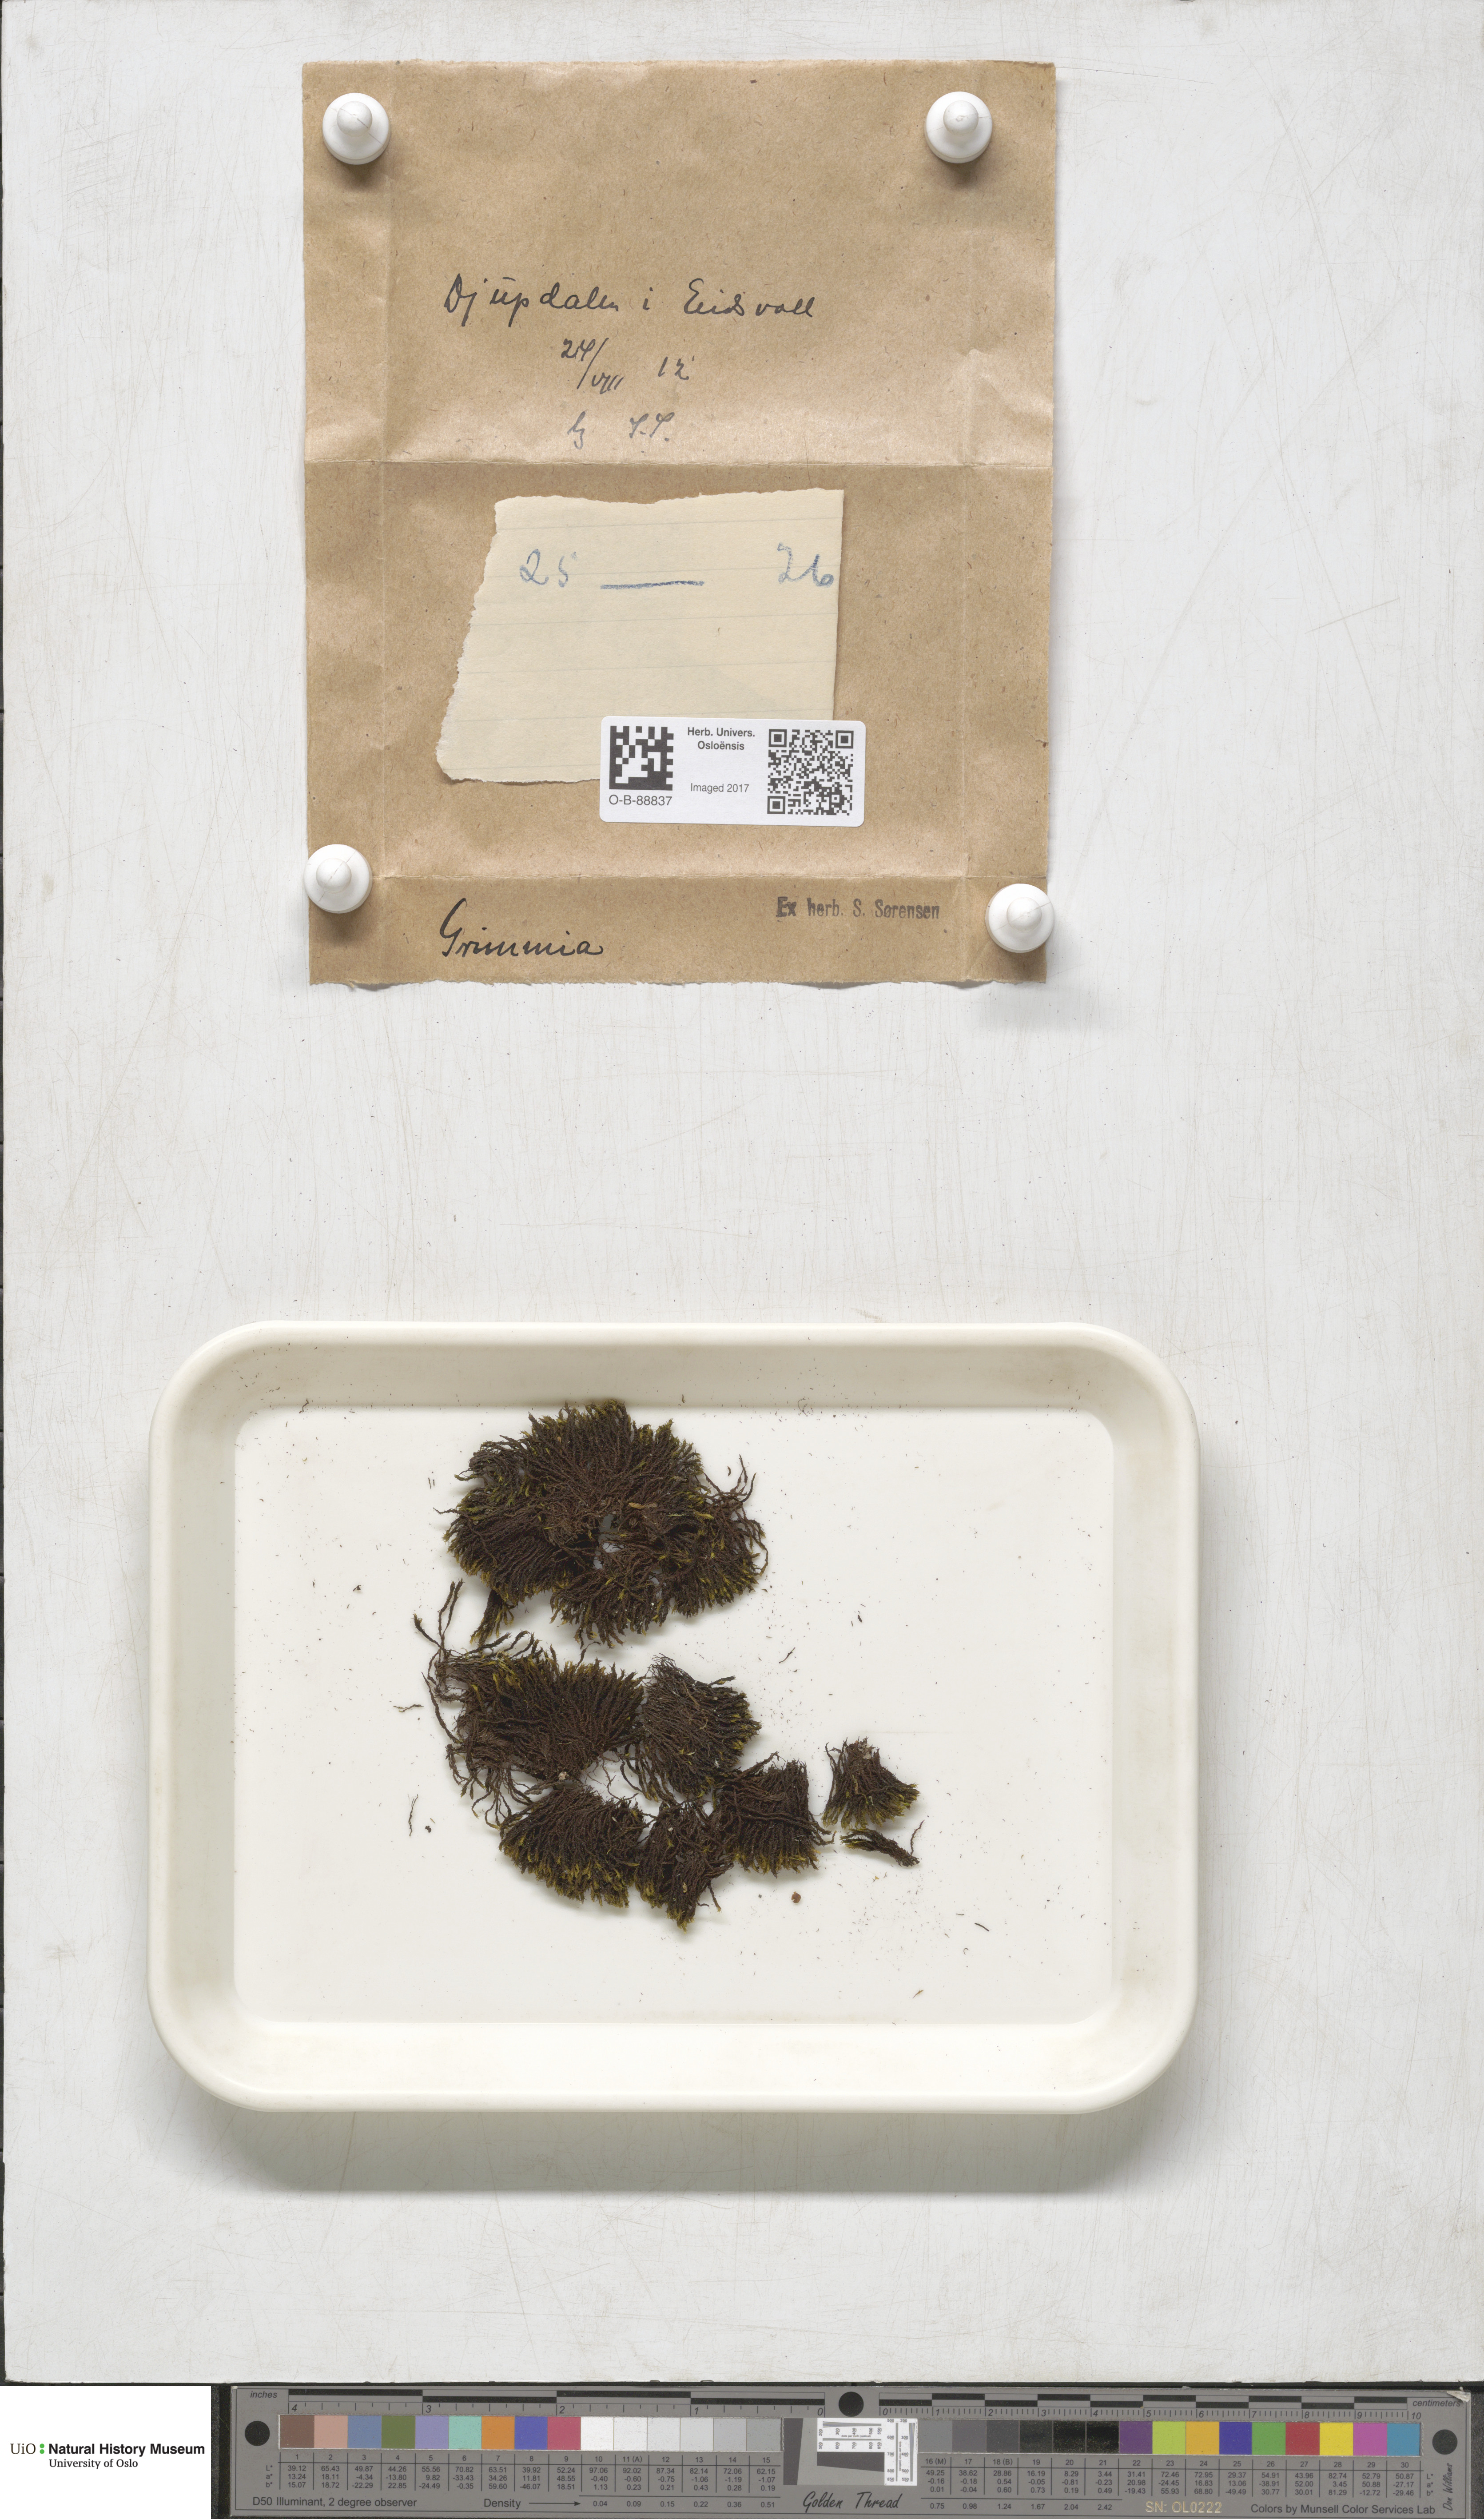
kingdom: Plantae
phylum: Bryophyta
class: Bryopsida
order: Grimmiales
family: Grimmiaceae
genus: Grimmia
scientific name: Grimmia
